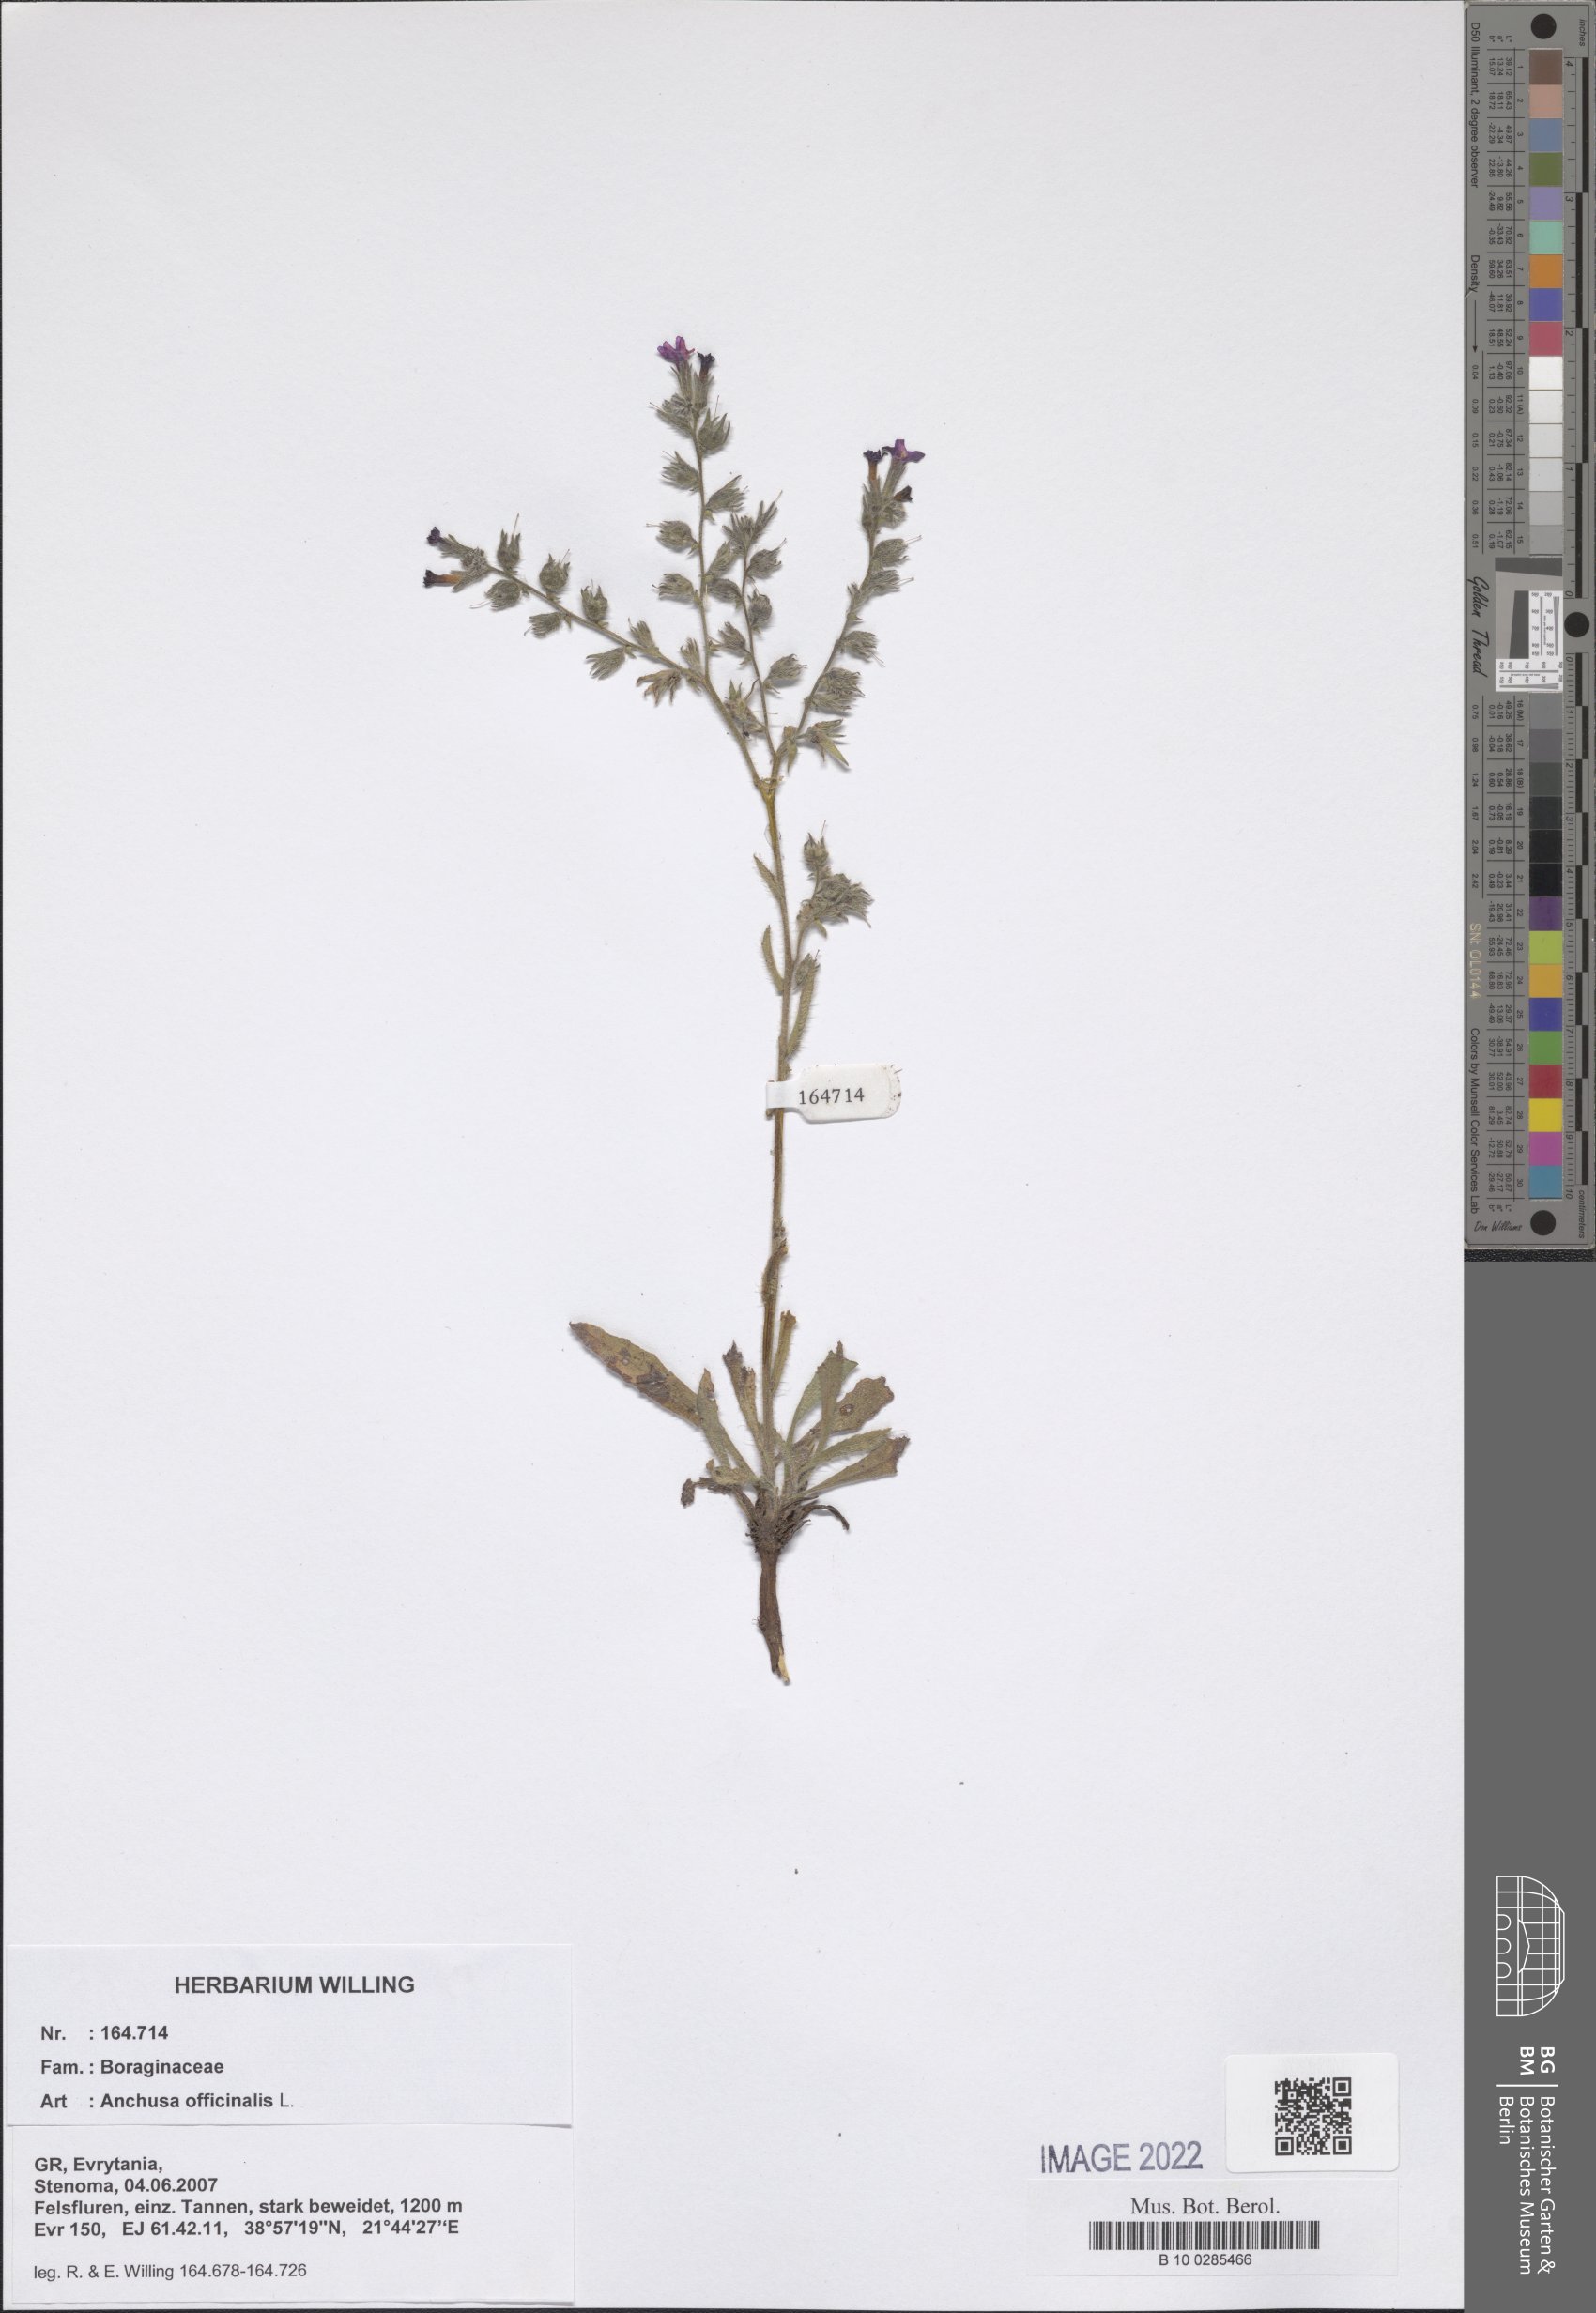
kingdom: Plantae
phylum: Tracheophyta
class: Magnoliopsida
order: Boraginales
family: Boraginaceae
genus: Anchusa
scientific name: Anchusa officinalis
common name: Alkanet
